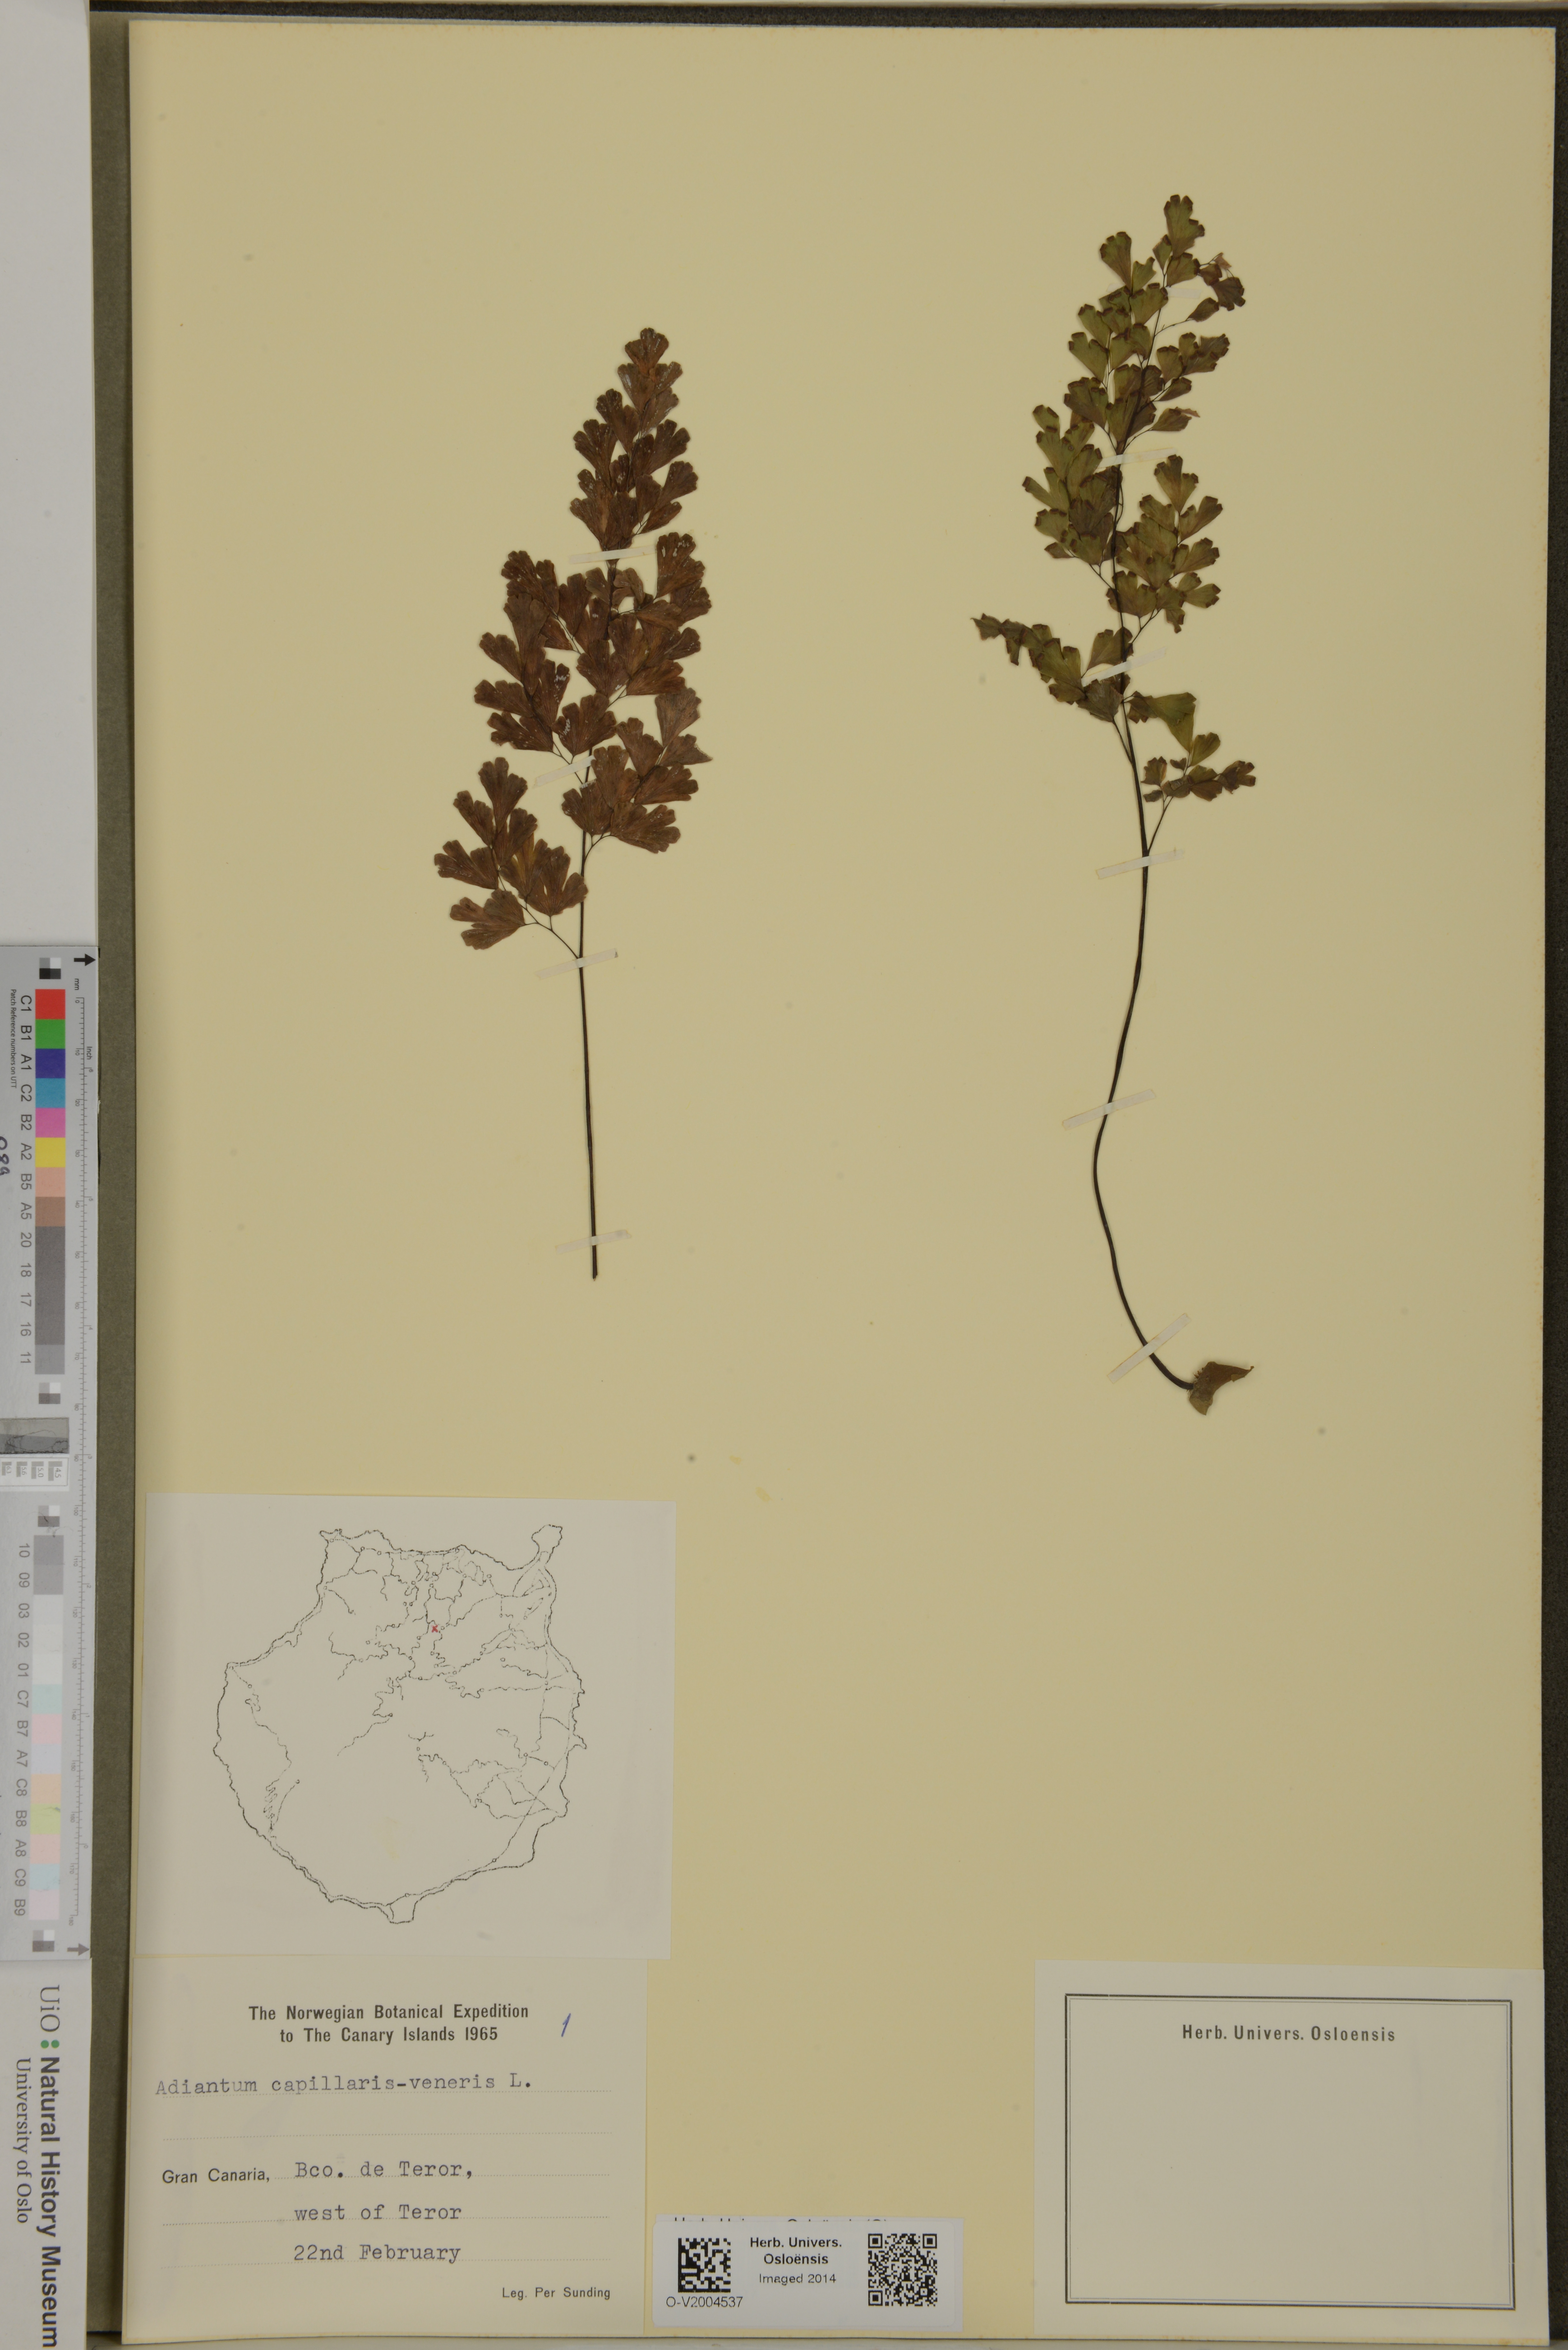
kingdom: Plantae
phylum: Tracheophyta
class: Polypodiopsida
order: Polypodiales
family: Pteridaceae
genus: Adiantum
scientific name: Adiantum capillus-veneris
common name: Maidenhair fern
